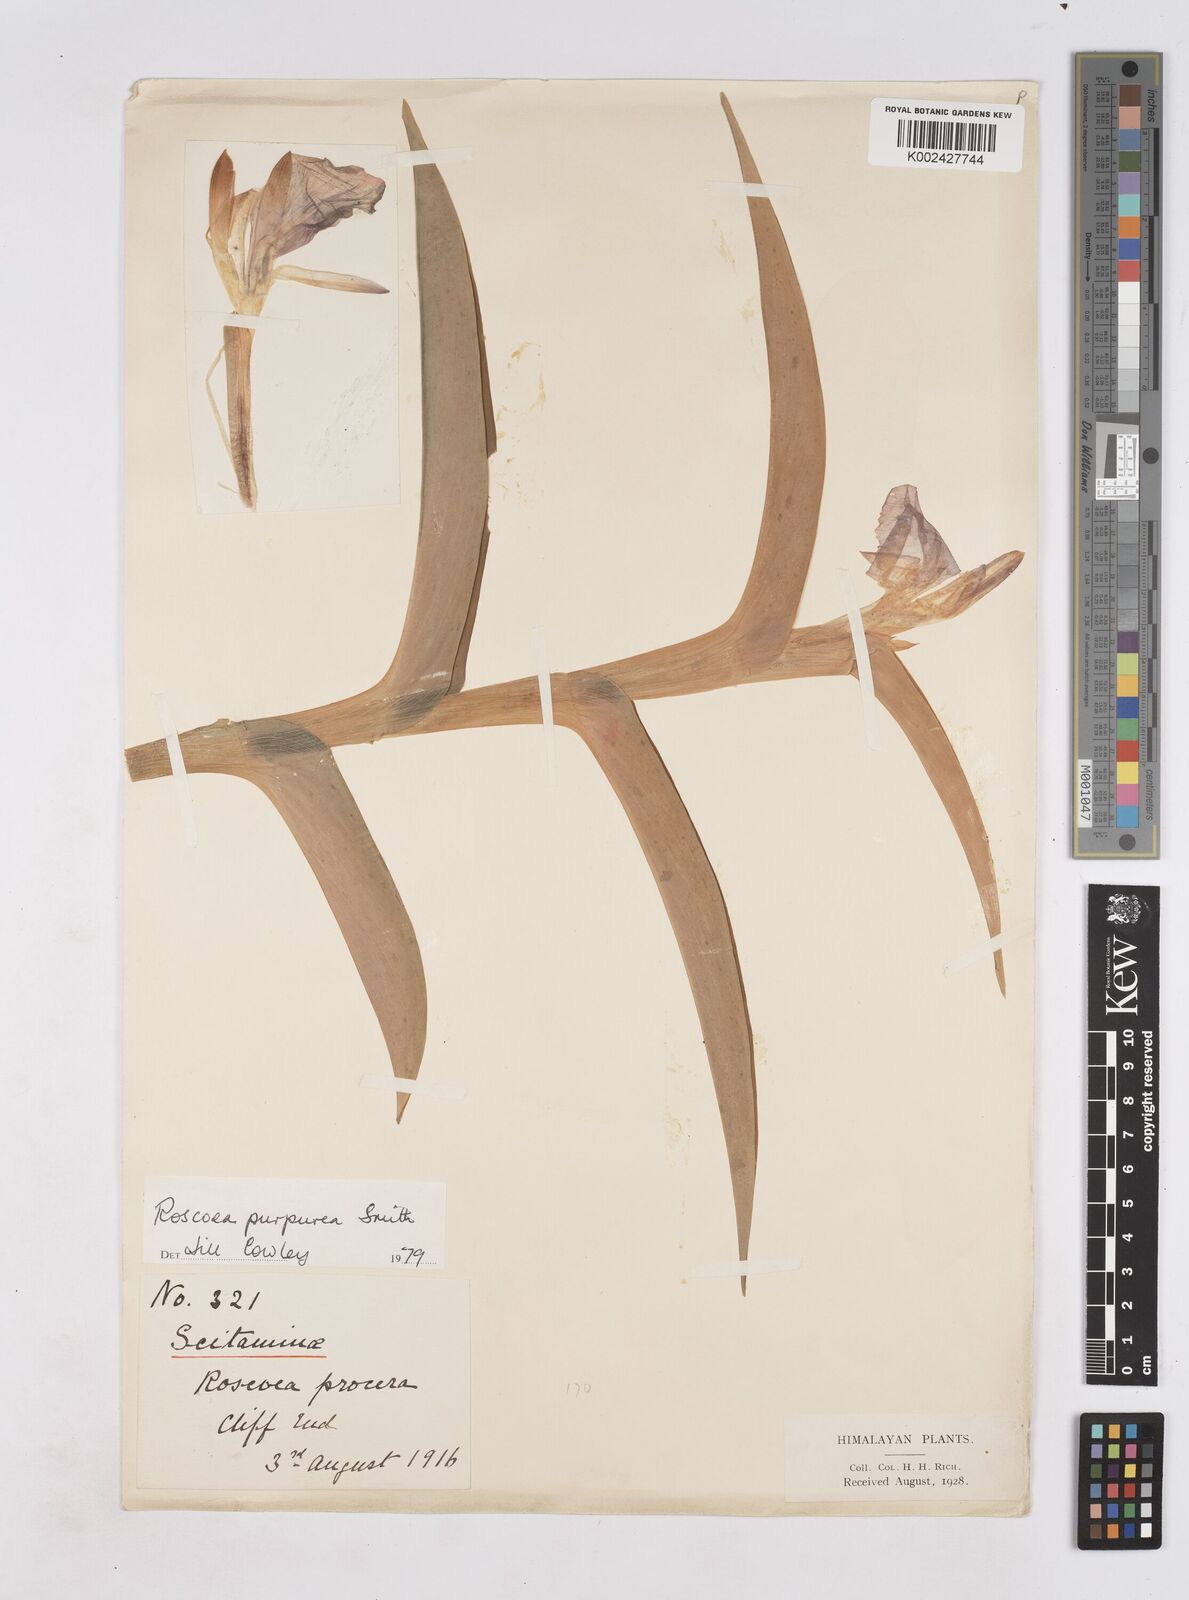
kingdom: Plantae
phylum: Tracheophyta
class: Liliopsida
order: Zingiberales
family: Zingiberaceae
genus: Roscoea
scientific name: Roscoea purpurea
